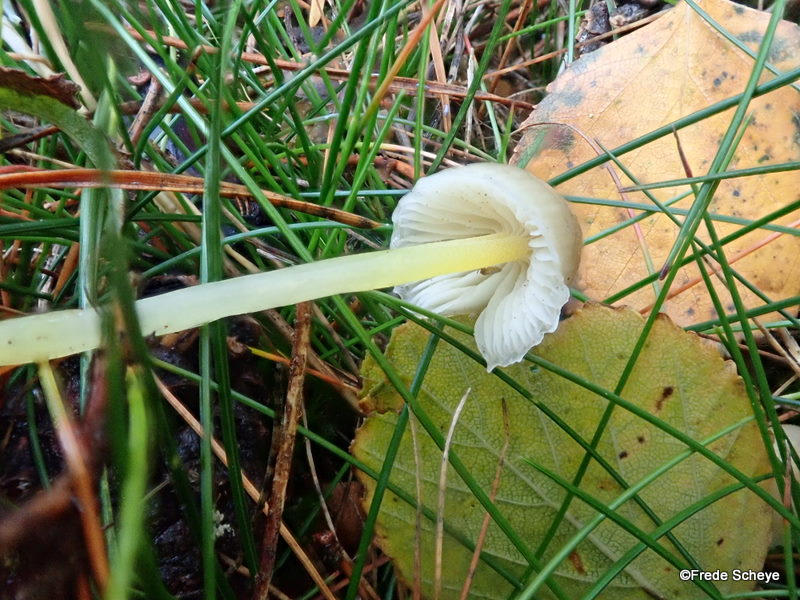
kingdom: Fungi
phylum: Basidiomycota
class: Agaricomycetes
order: Agaricales
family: Mycenaceae
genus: Mycena
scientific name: Mycena epipterygia
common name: gulstokket huesvamp
